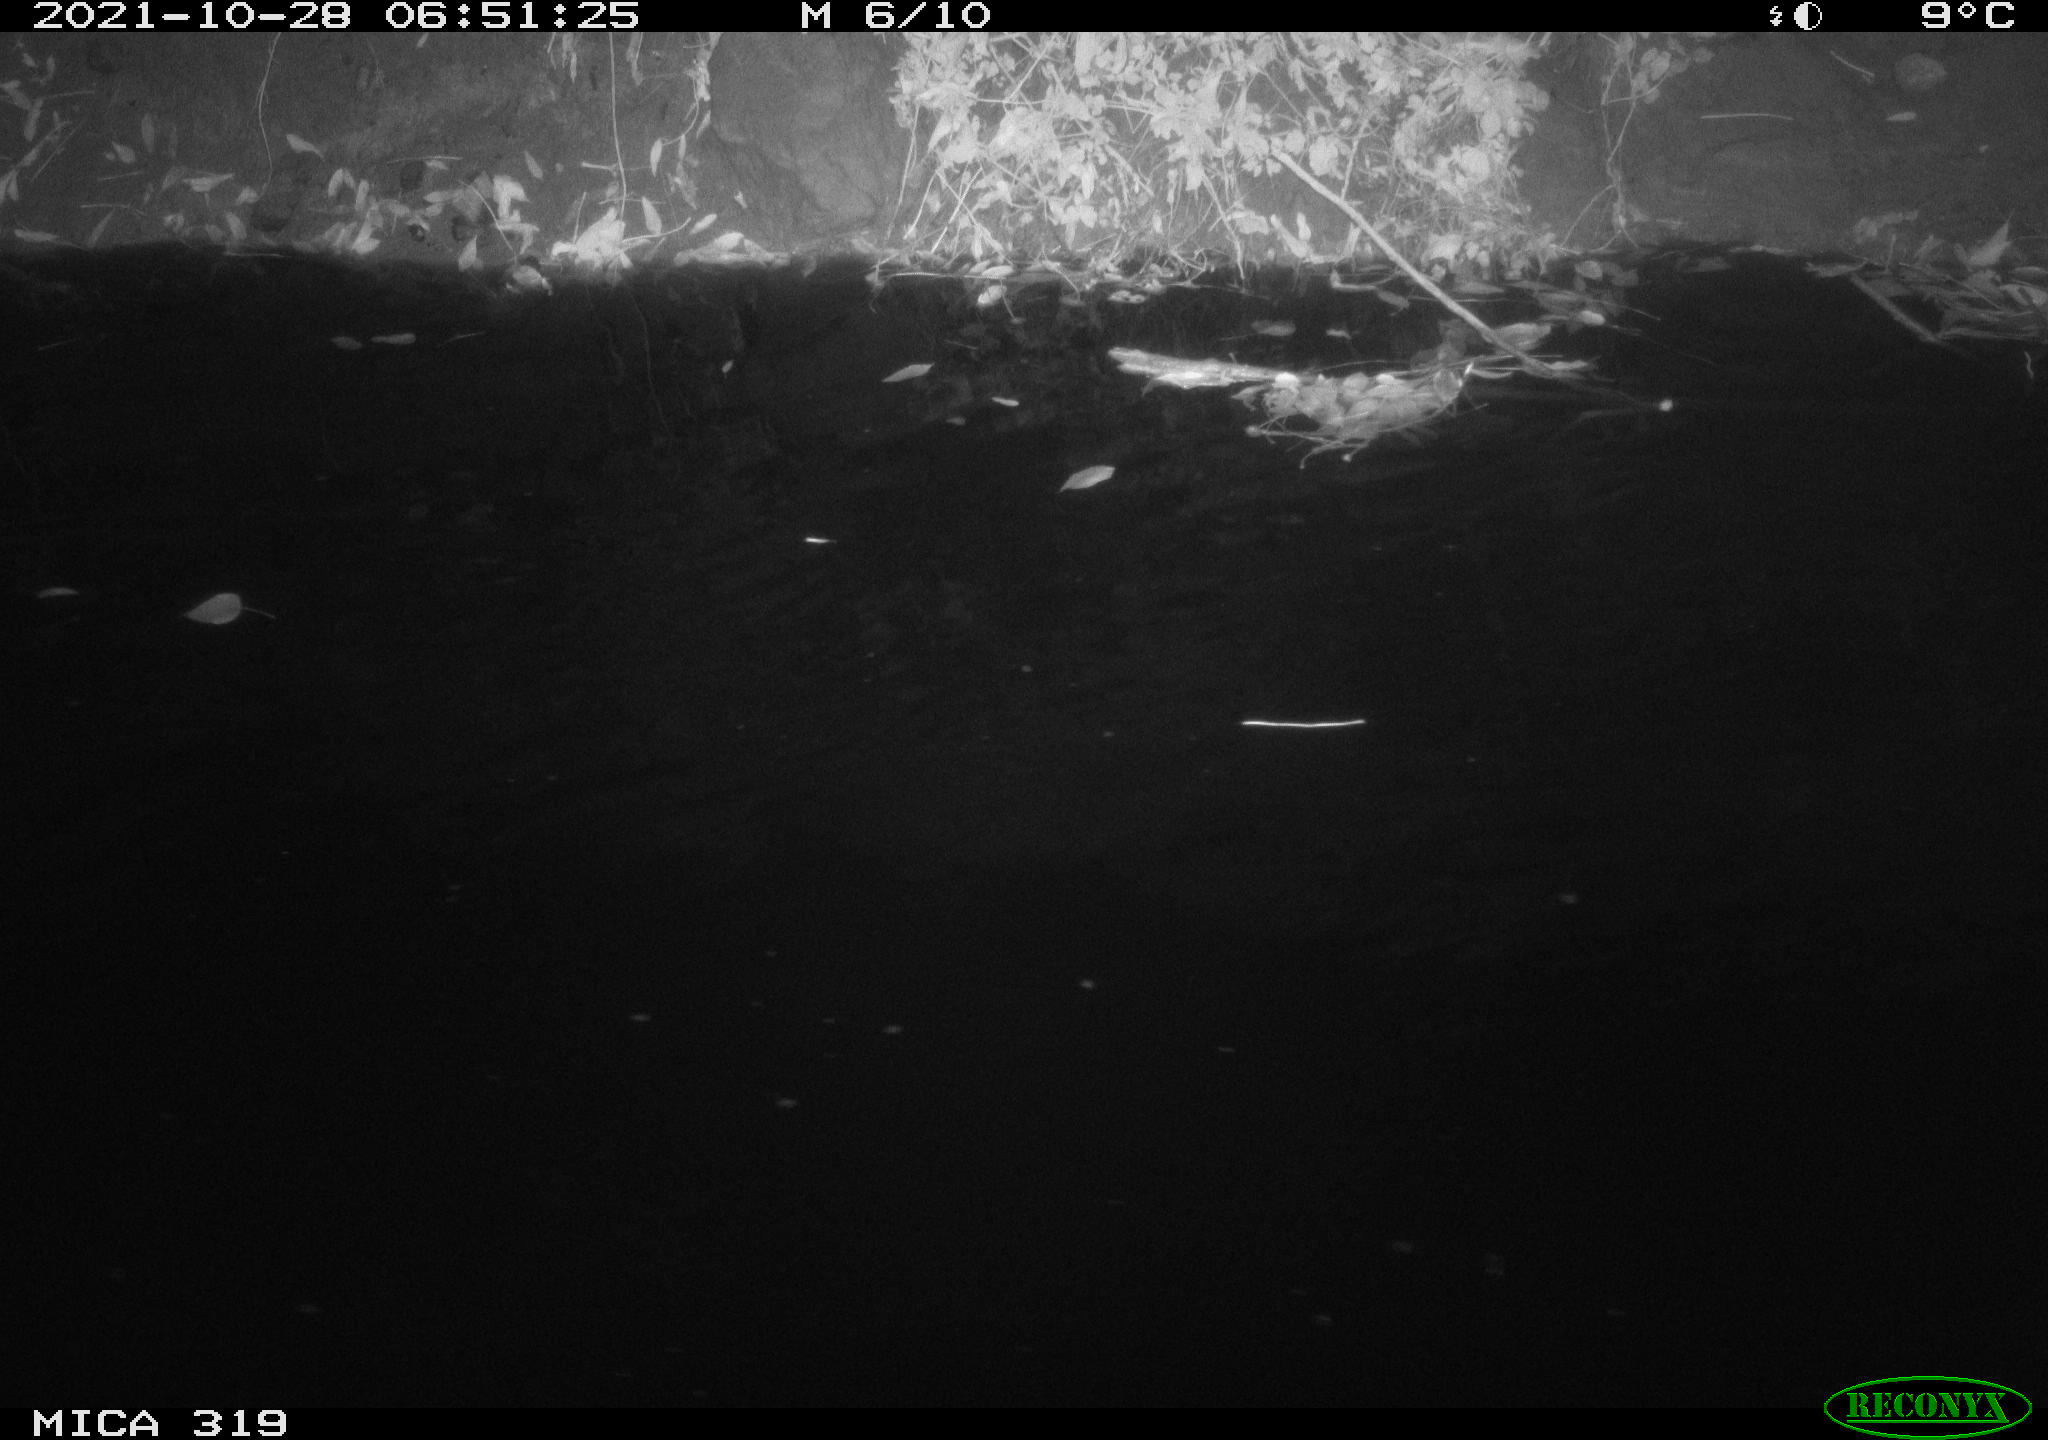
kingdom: Animalia
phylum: Chordata
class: Aves
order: Anseriformes
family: Anatidae
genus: Anas
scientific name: Anas platyrhynchos
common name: Mallard
